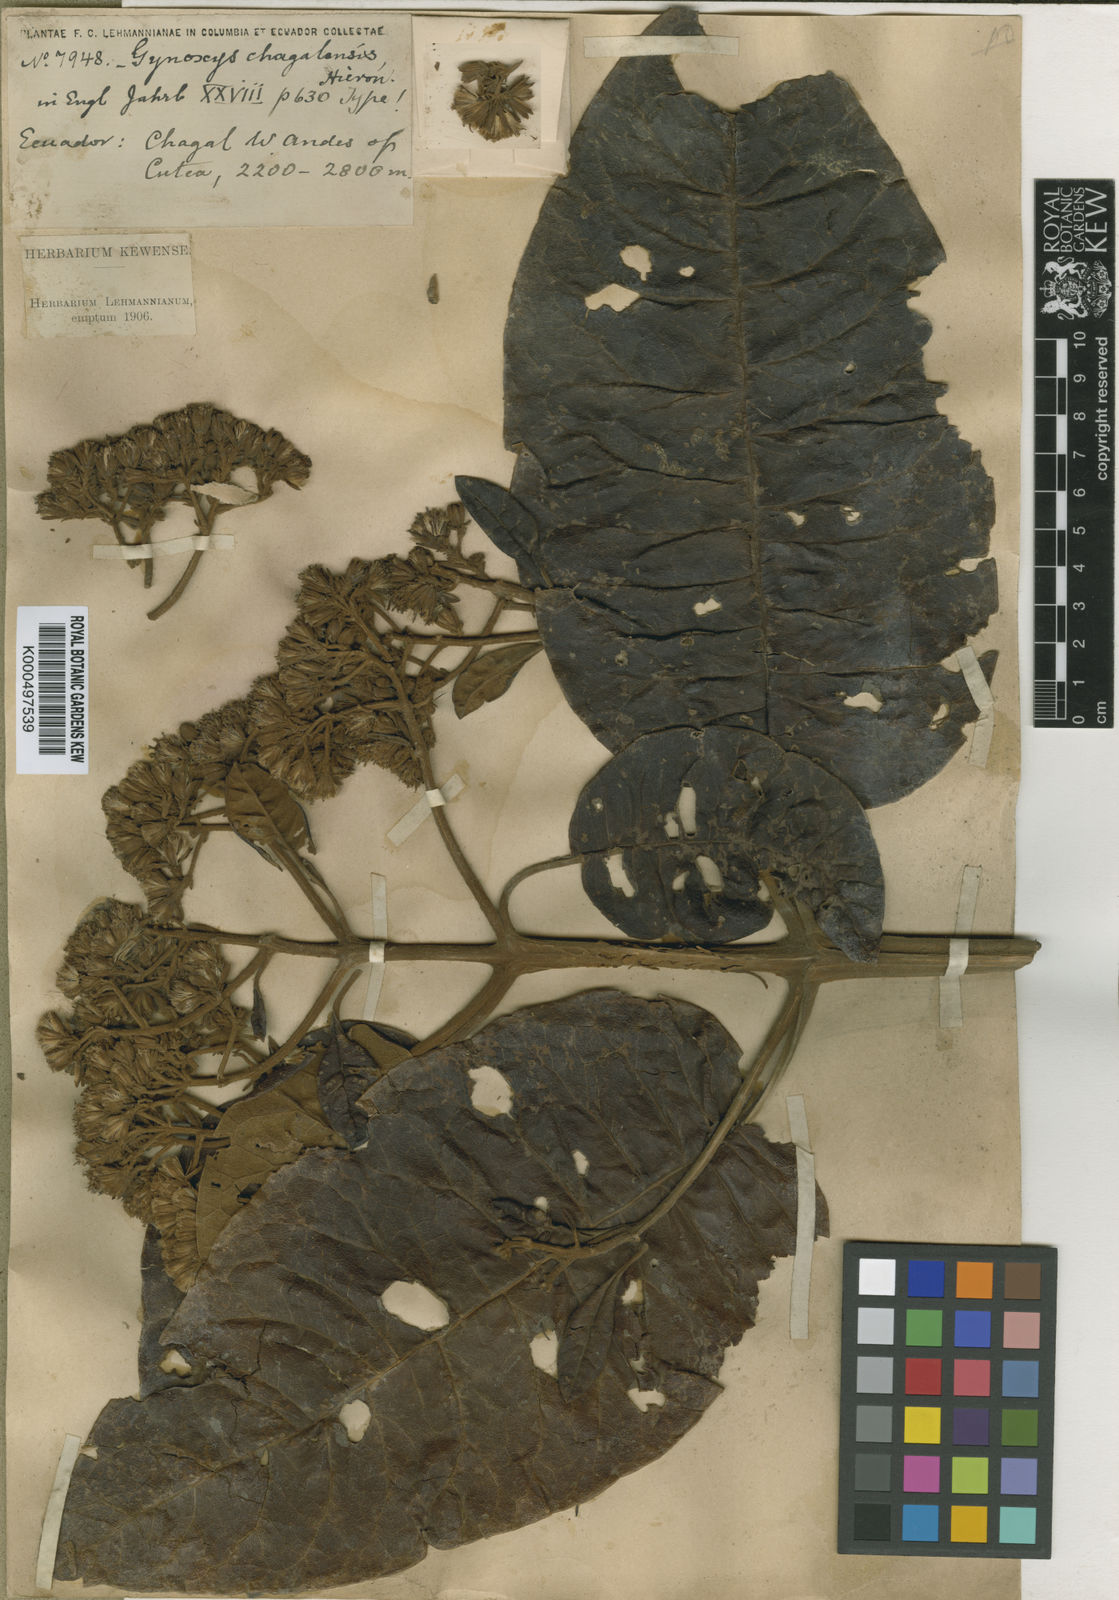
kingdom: Plantae
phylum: Tracheophyta
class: Magnoliopsida
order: Asterales
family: Asteraceae
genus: Gynoxys
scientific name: Gynoxys chagalensis
